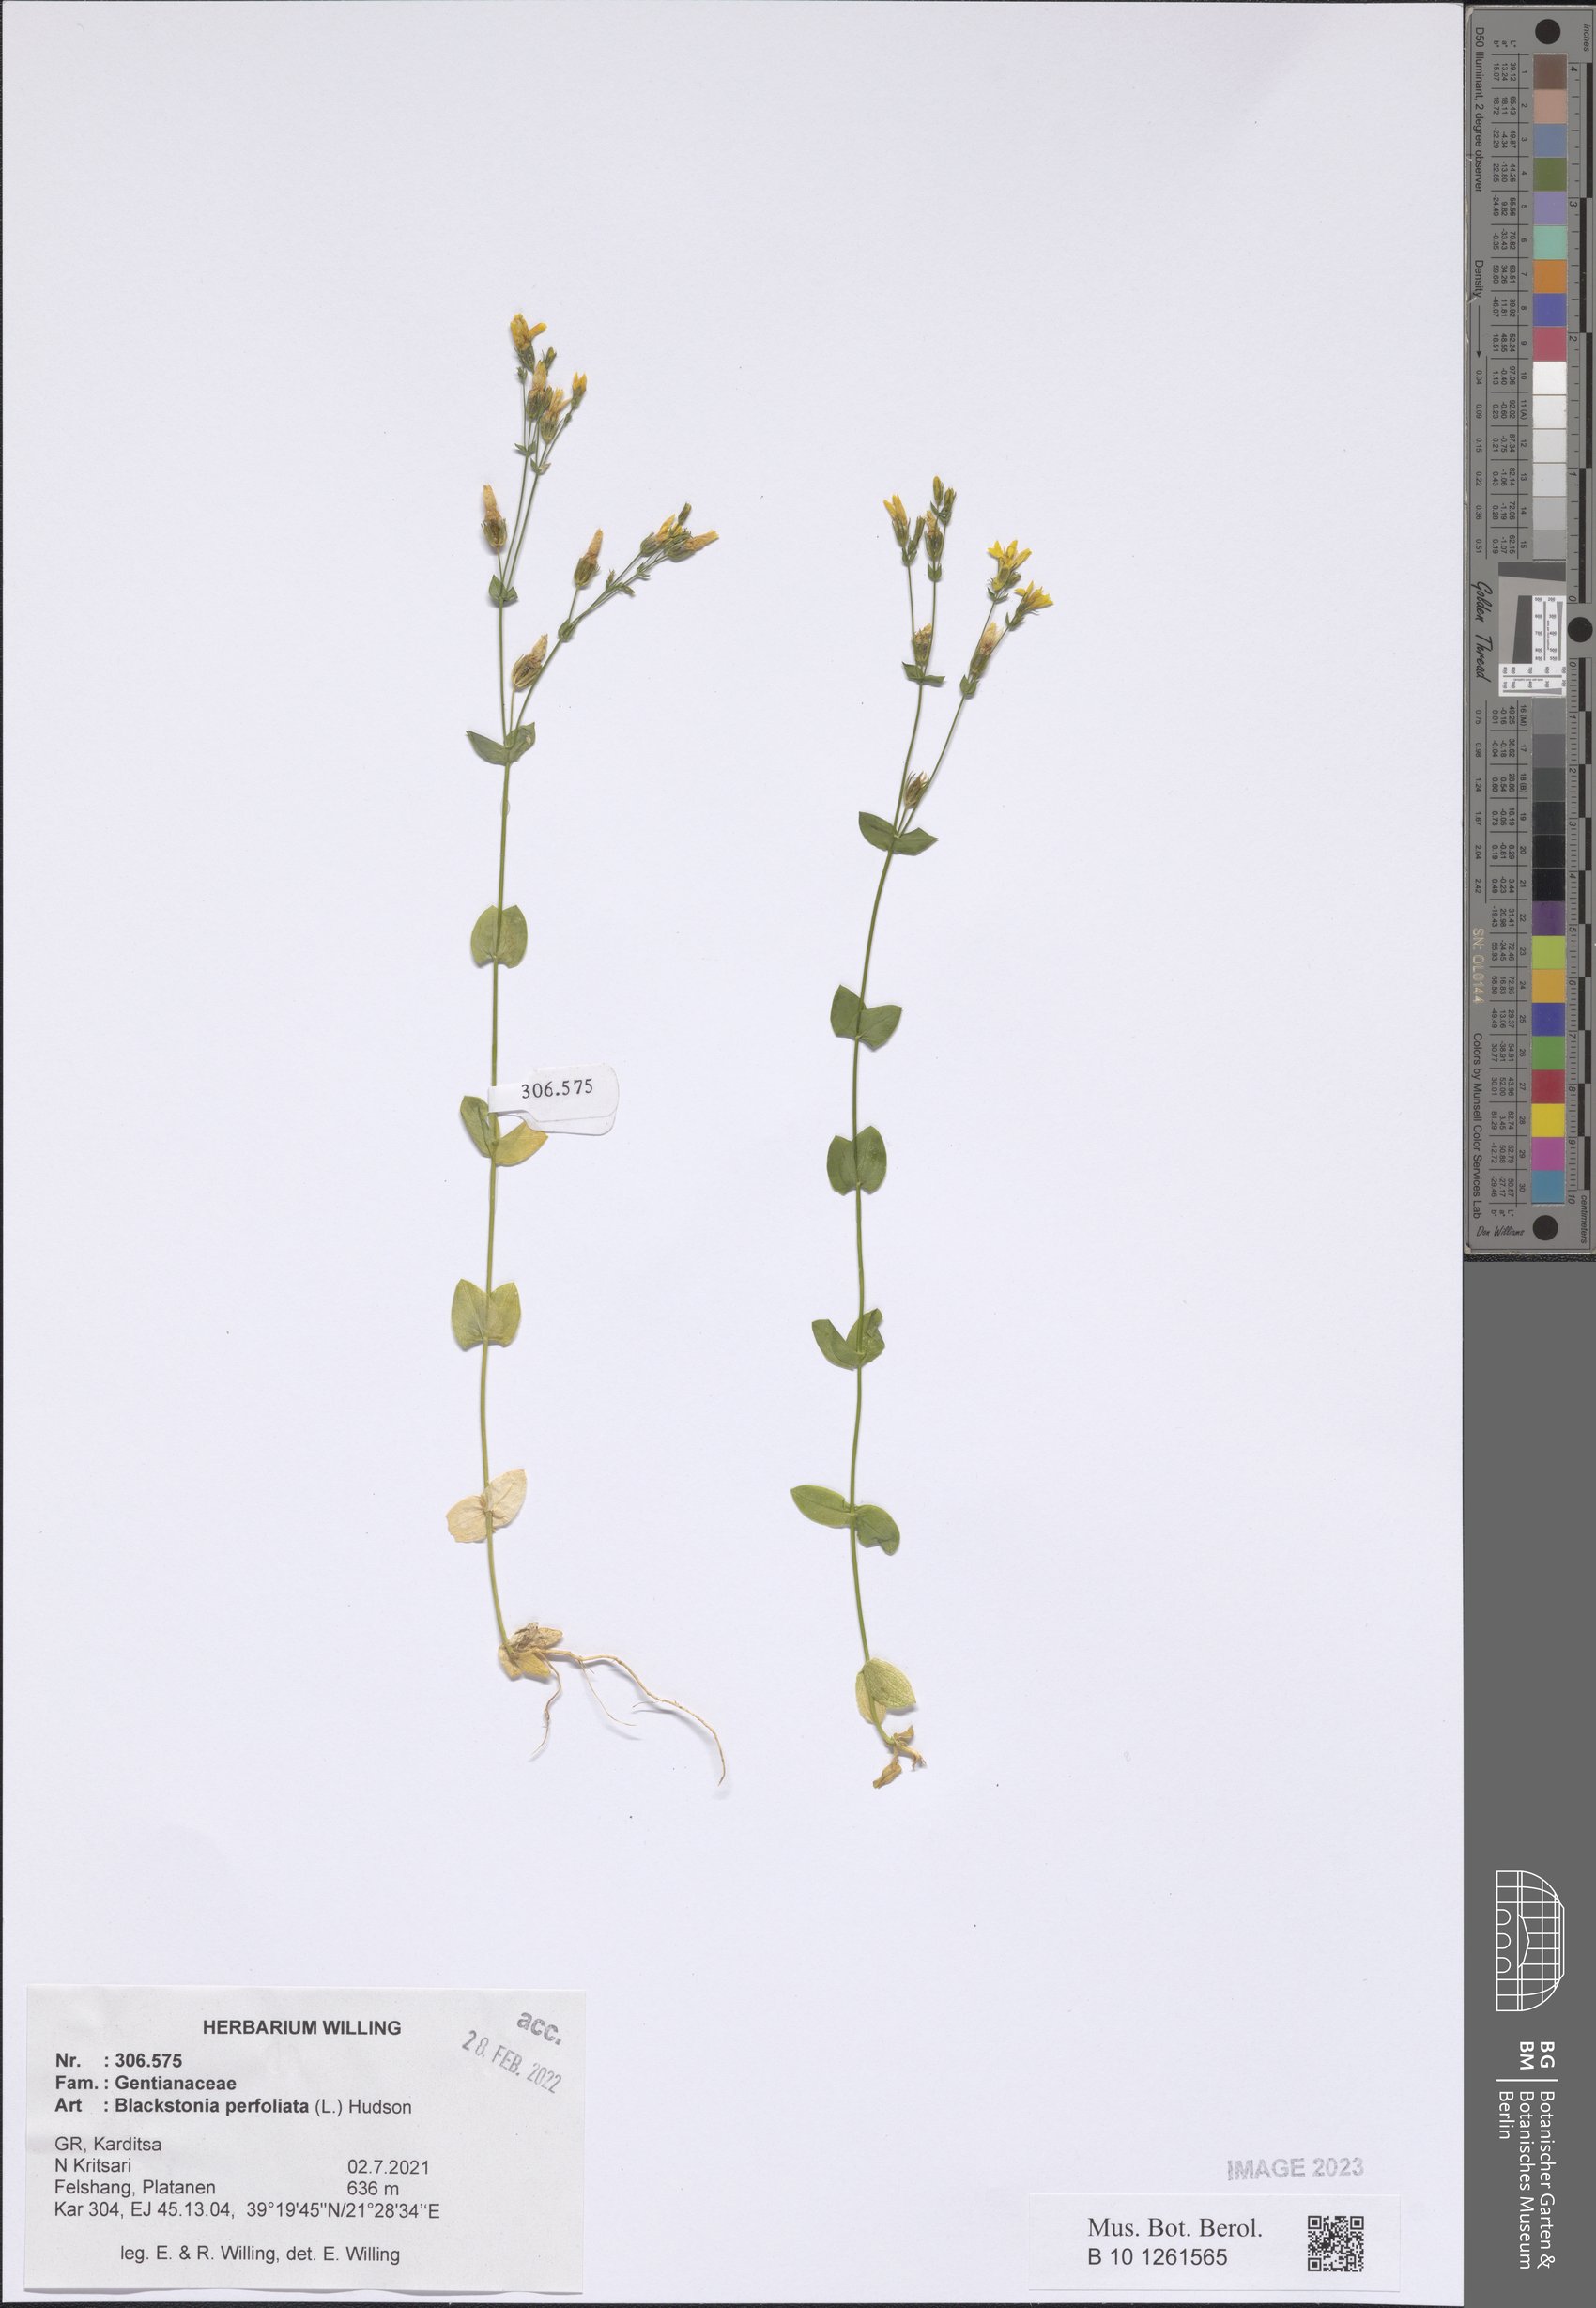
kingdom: Plantae
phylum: Tracheophyta
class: Magnoliopsida
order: Gentianales
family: Gentianaceae
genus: Blackstonia
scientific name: Blackstonia perfoliata
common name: Yellow-wort
